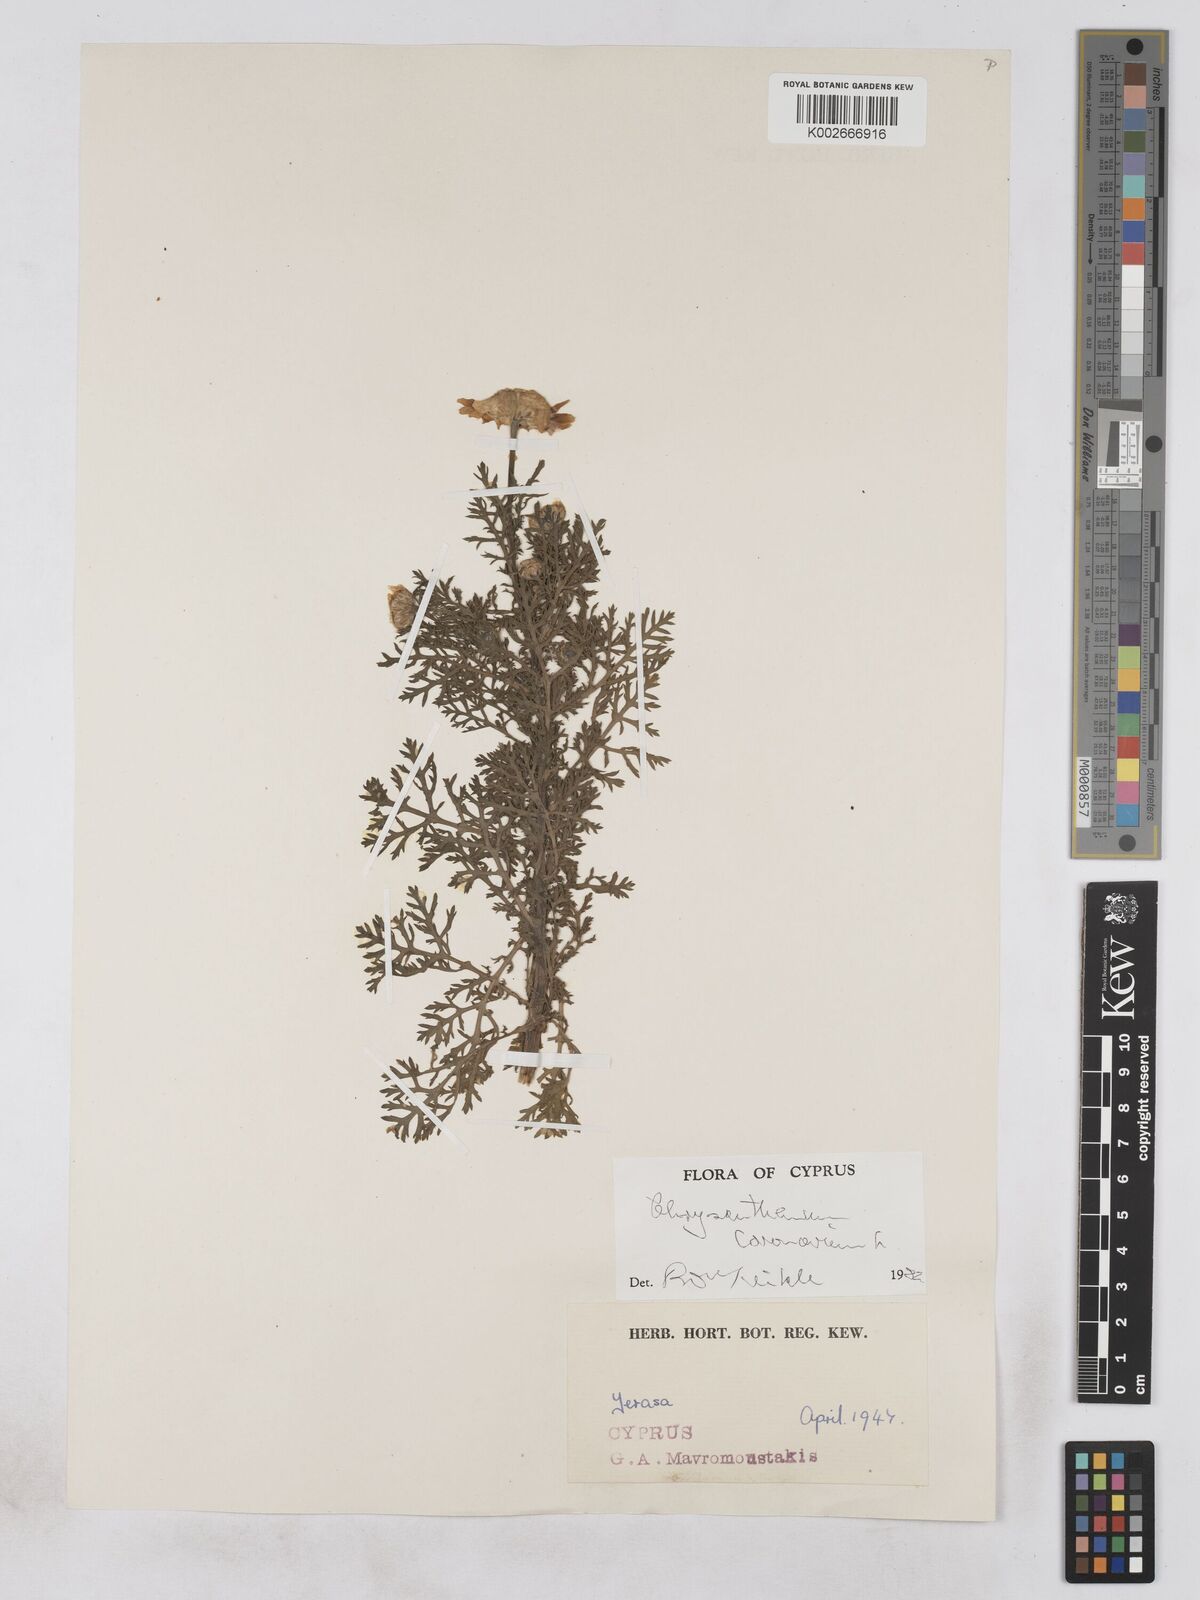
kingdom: Plantae
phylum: Tracheophyta
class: Magnoliopsida
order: Asterales
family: Asteraceae
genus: Glebionis
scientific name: Glebionis coronaria
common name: Crowndaisy
